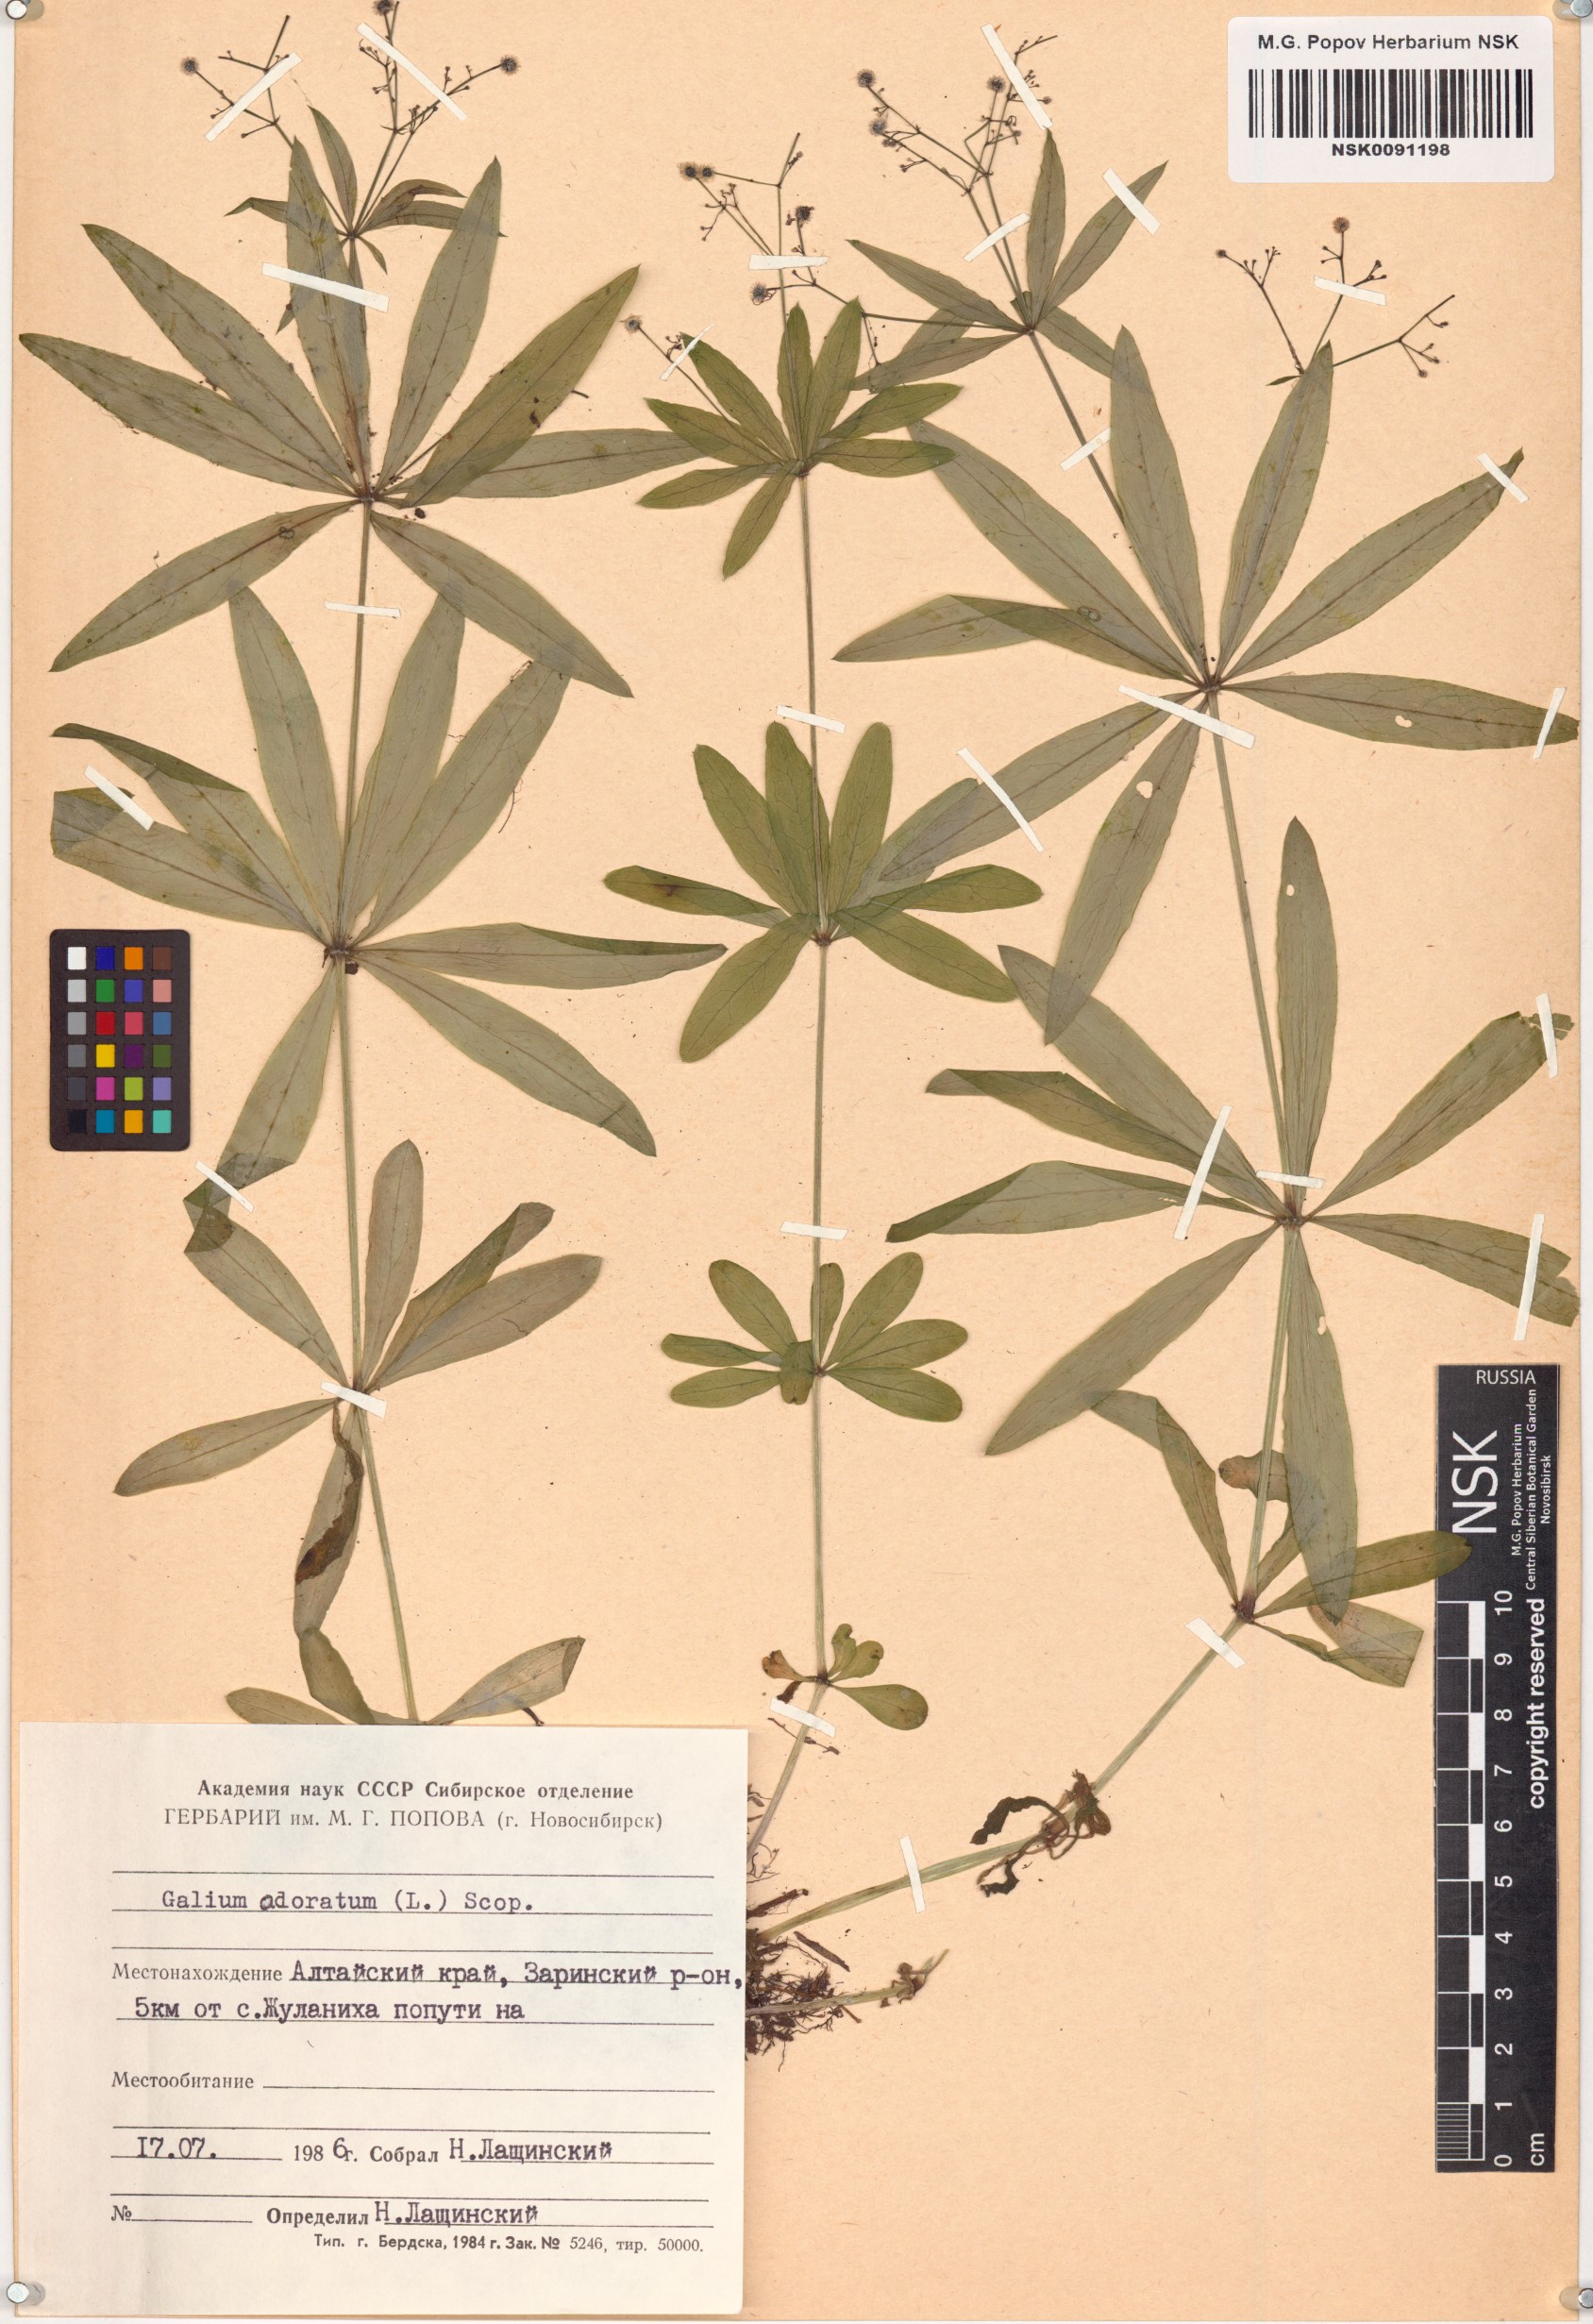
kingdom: Plantae
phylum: Tracheophyta
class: Magnoliopsida
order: Gentianales
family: Rubiaceae
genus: Galium
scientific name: Galium odoratum
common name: Sweet woodruff
